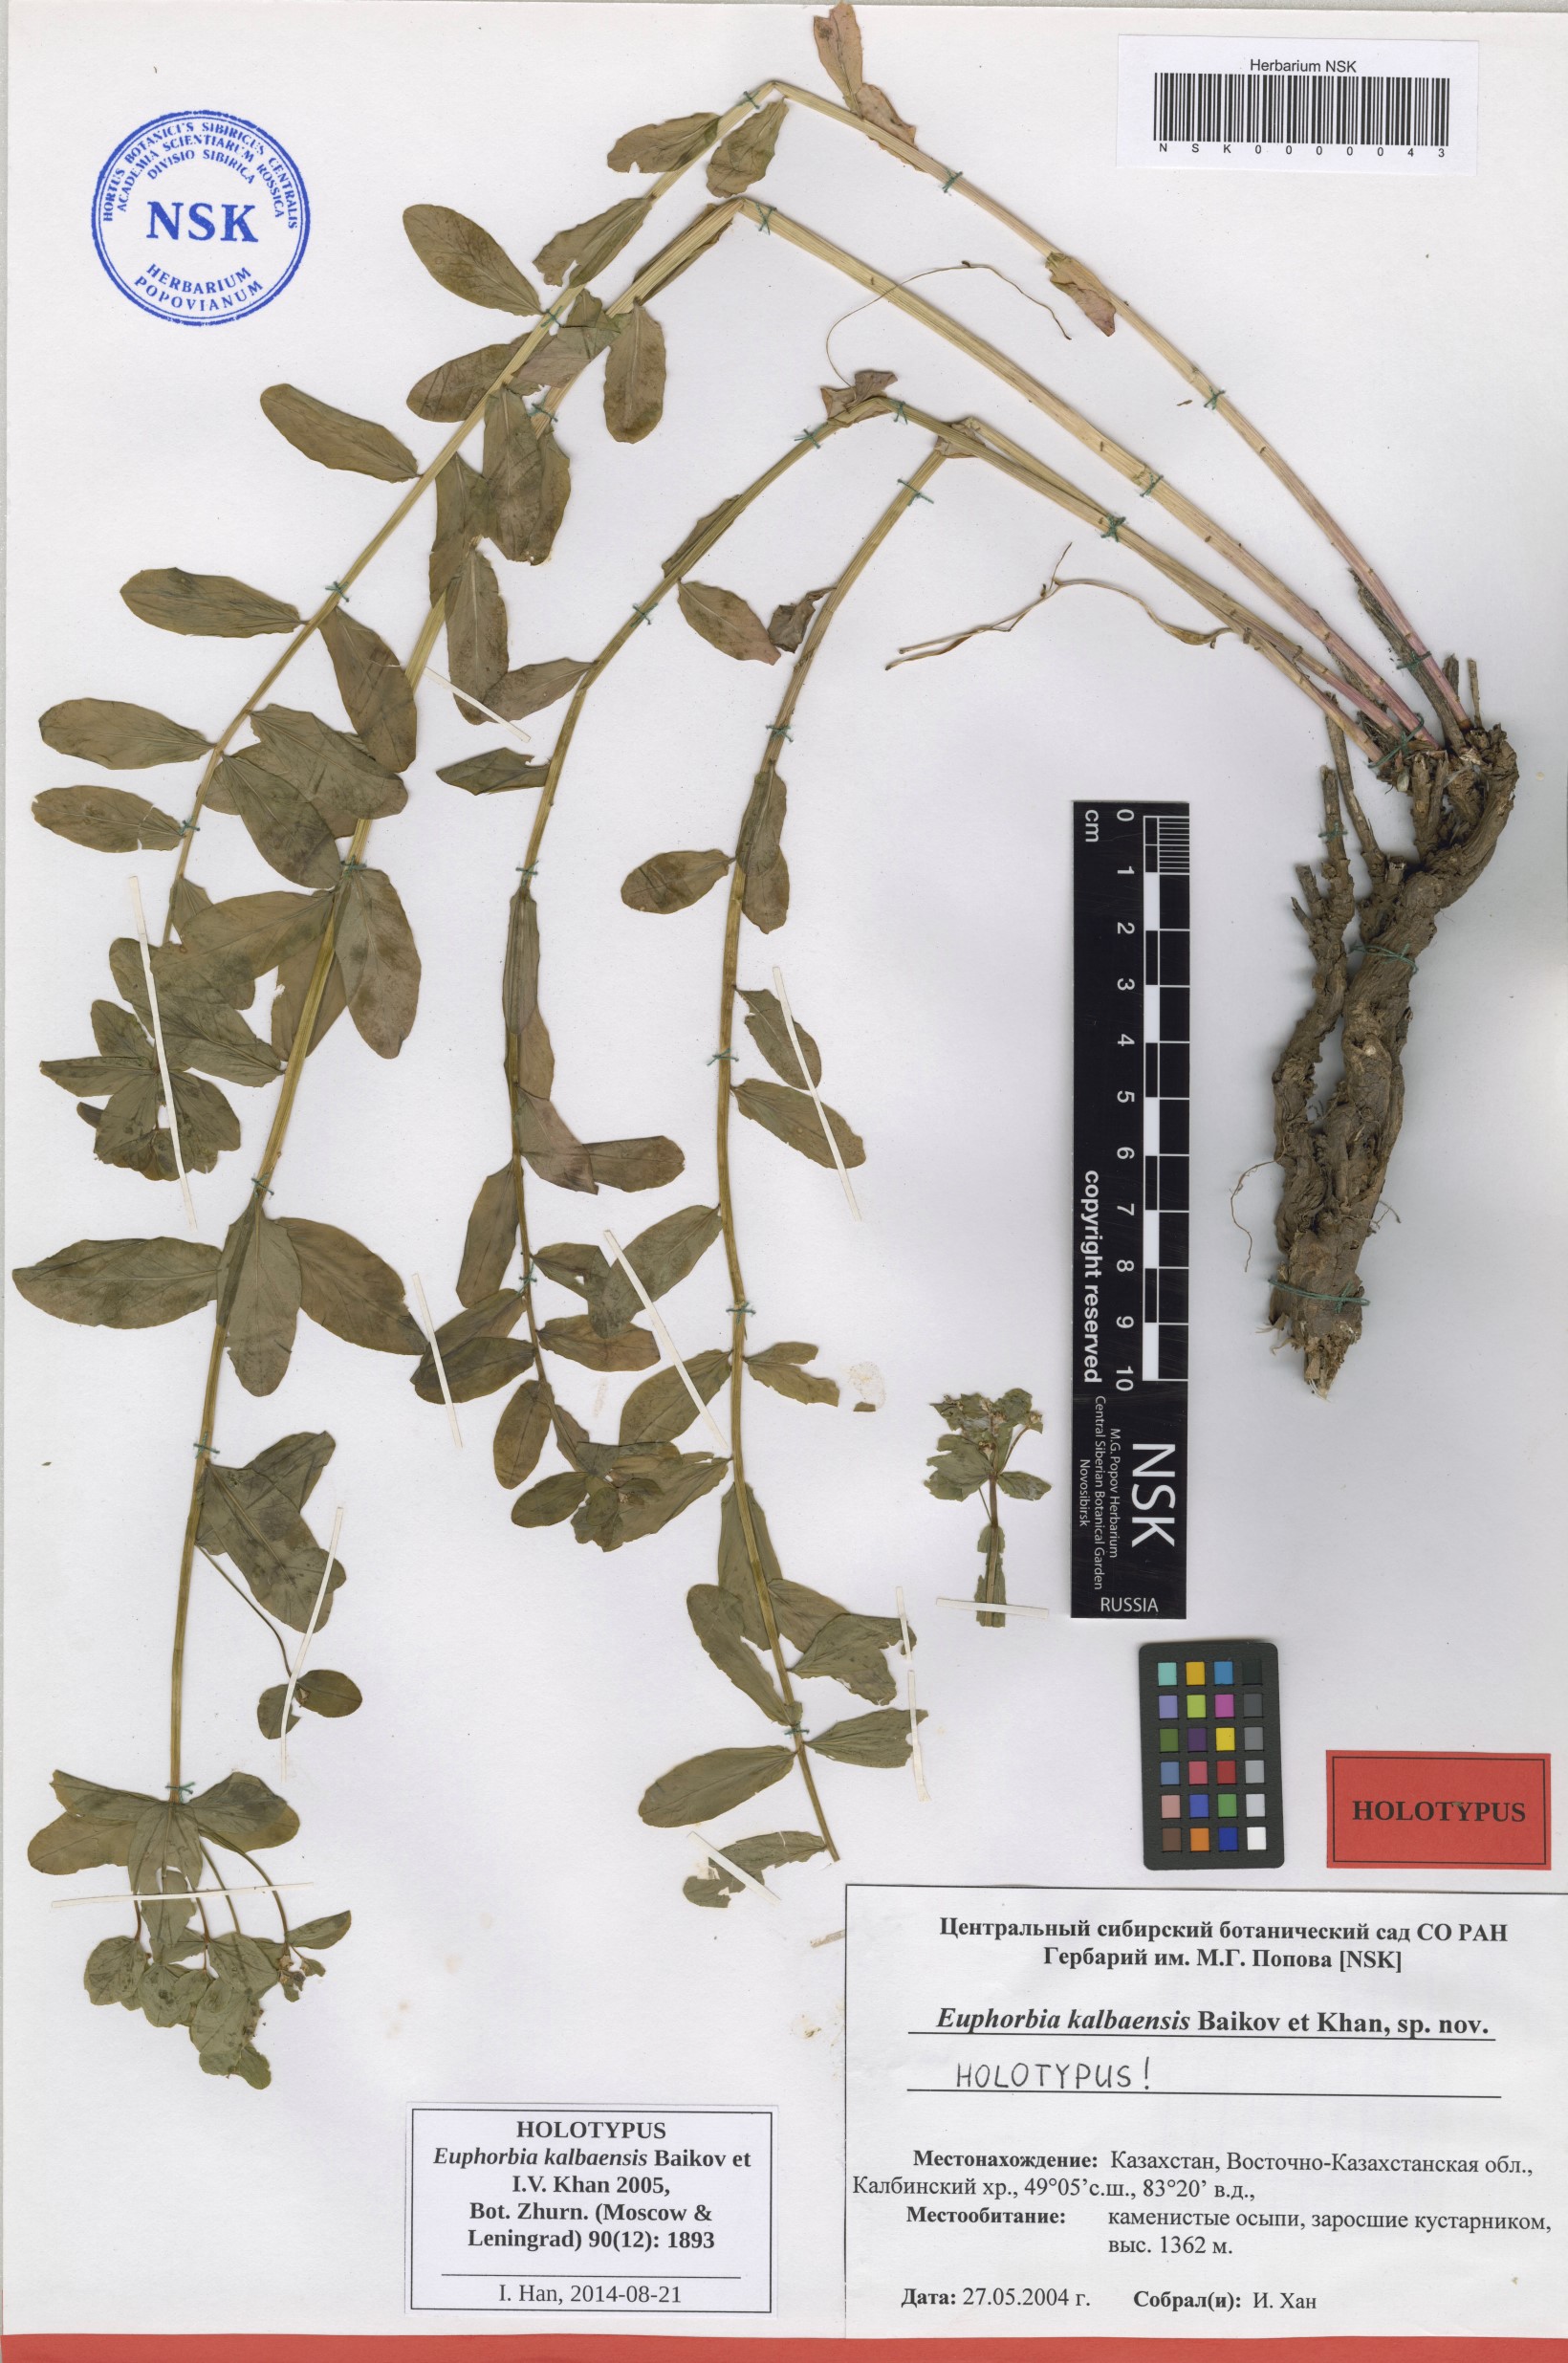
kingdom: Plantae
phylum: Tracheophyta
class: Magnoliopsida
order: Malpighiales
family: Euphorbiaceae
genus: Euphorbia
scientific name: Euphorbia kalbaensis
